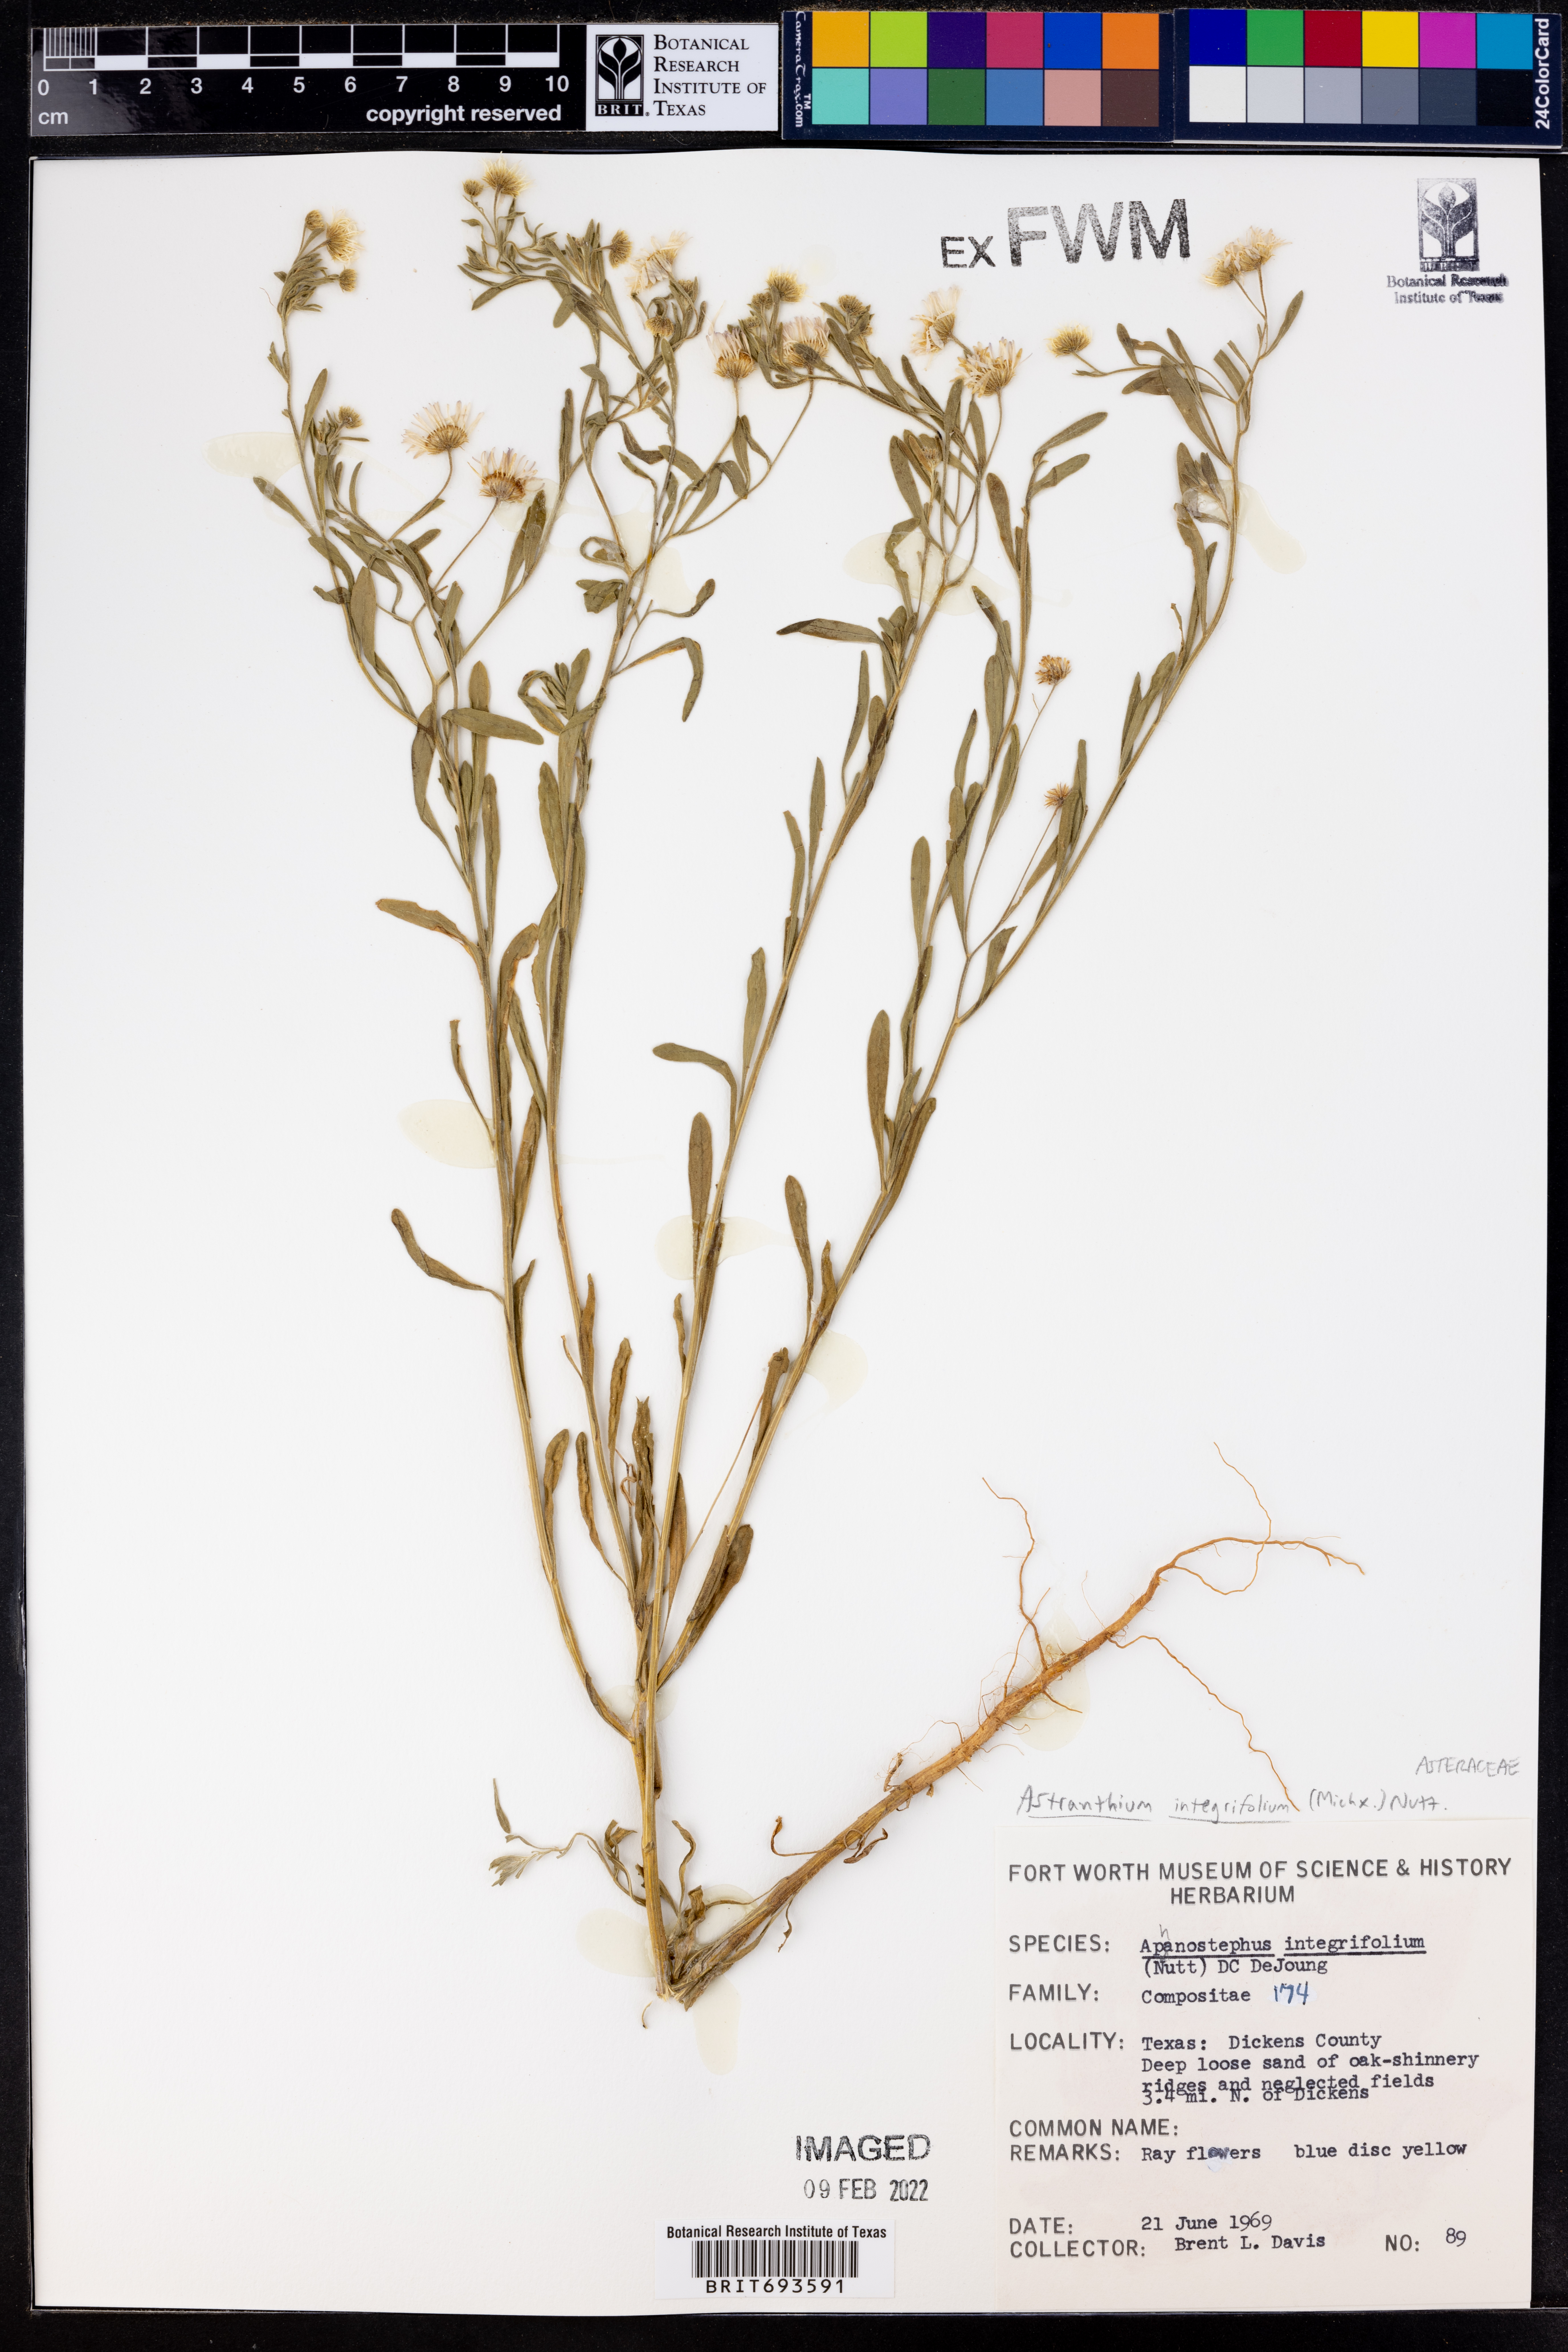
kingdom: Plantae
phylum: Tracheophyta
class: Magnoliopsida
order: Asterales
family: Asteraceae
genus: Astranthium
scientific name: Astranthium integrifolium
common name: Western daisy
